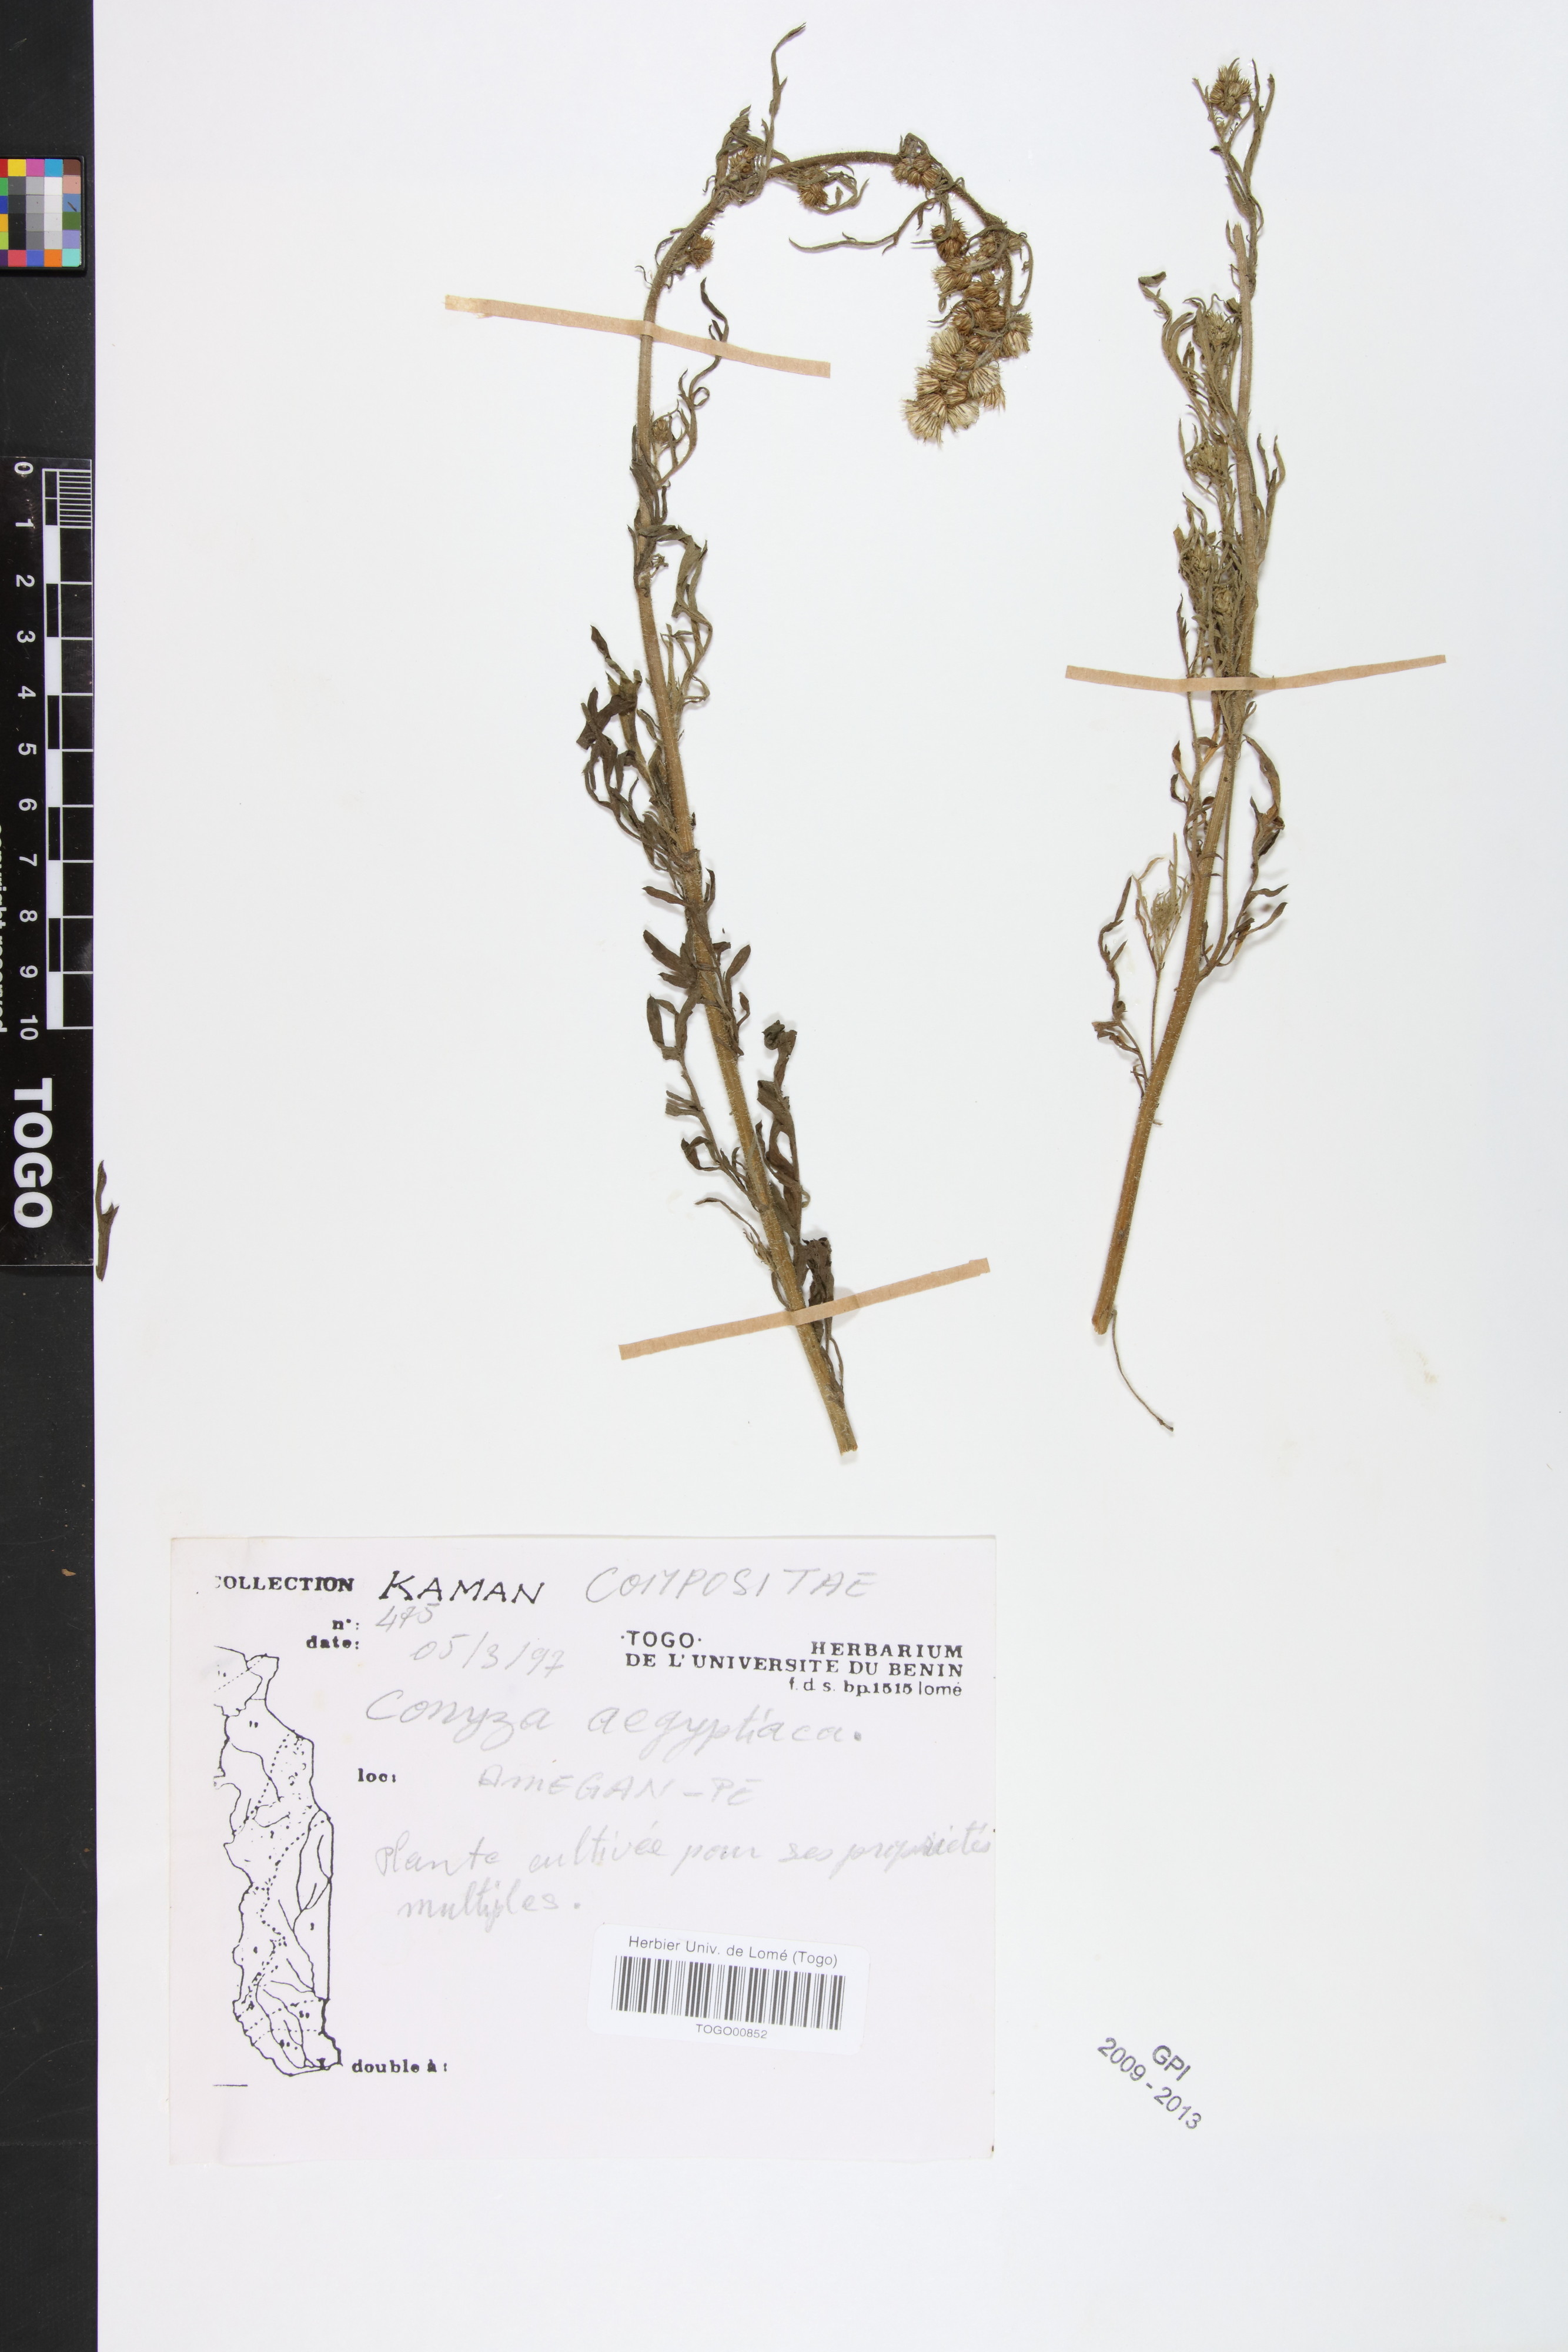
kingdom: Plantae
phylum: Tracheophyta
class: Magnoliopsida
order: Asterales
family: Asteraceae
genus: Nidorella
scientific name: Nidorella aegyptiaca
